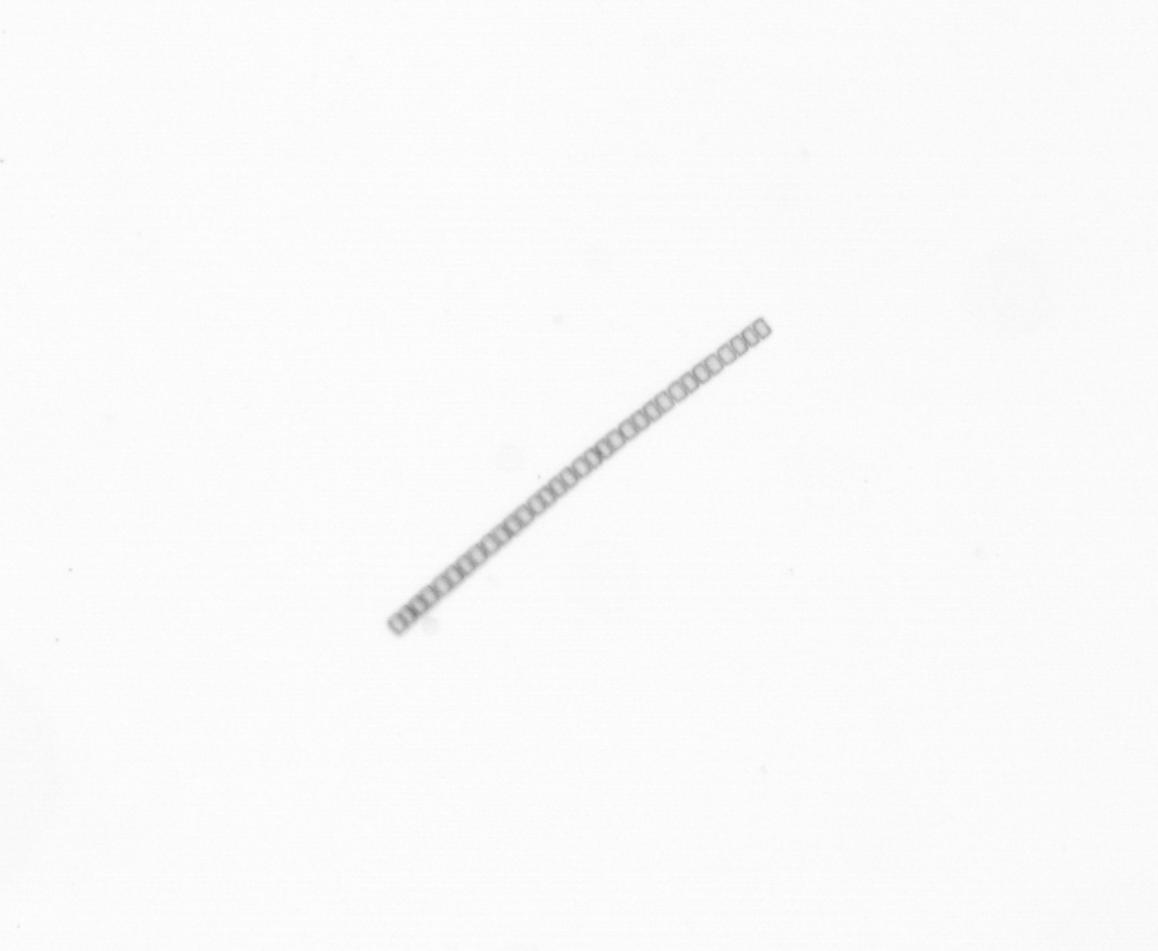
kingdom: Chromista
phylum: Ochrophyta
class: Bacillariophyceae
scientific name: Bacillariophyceae
